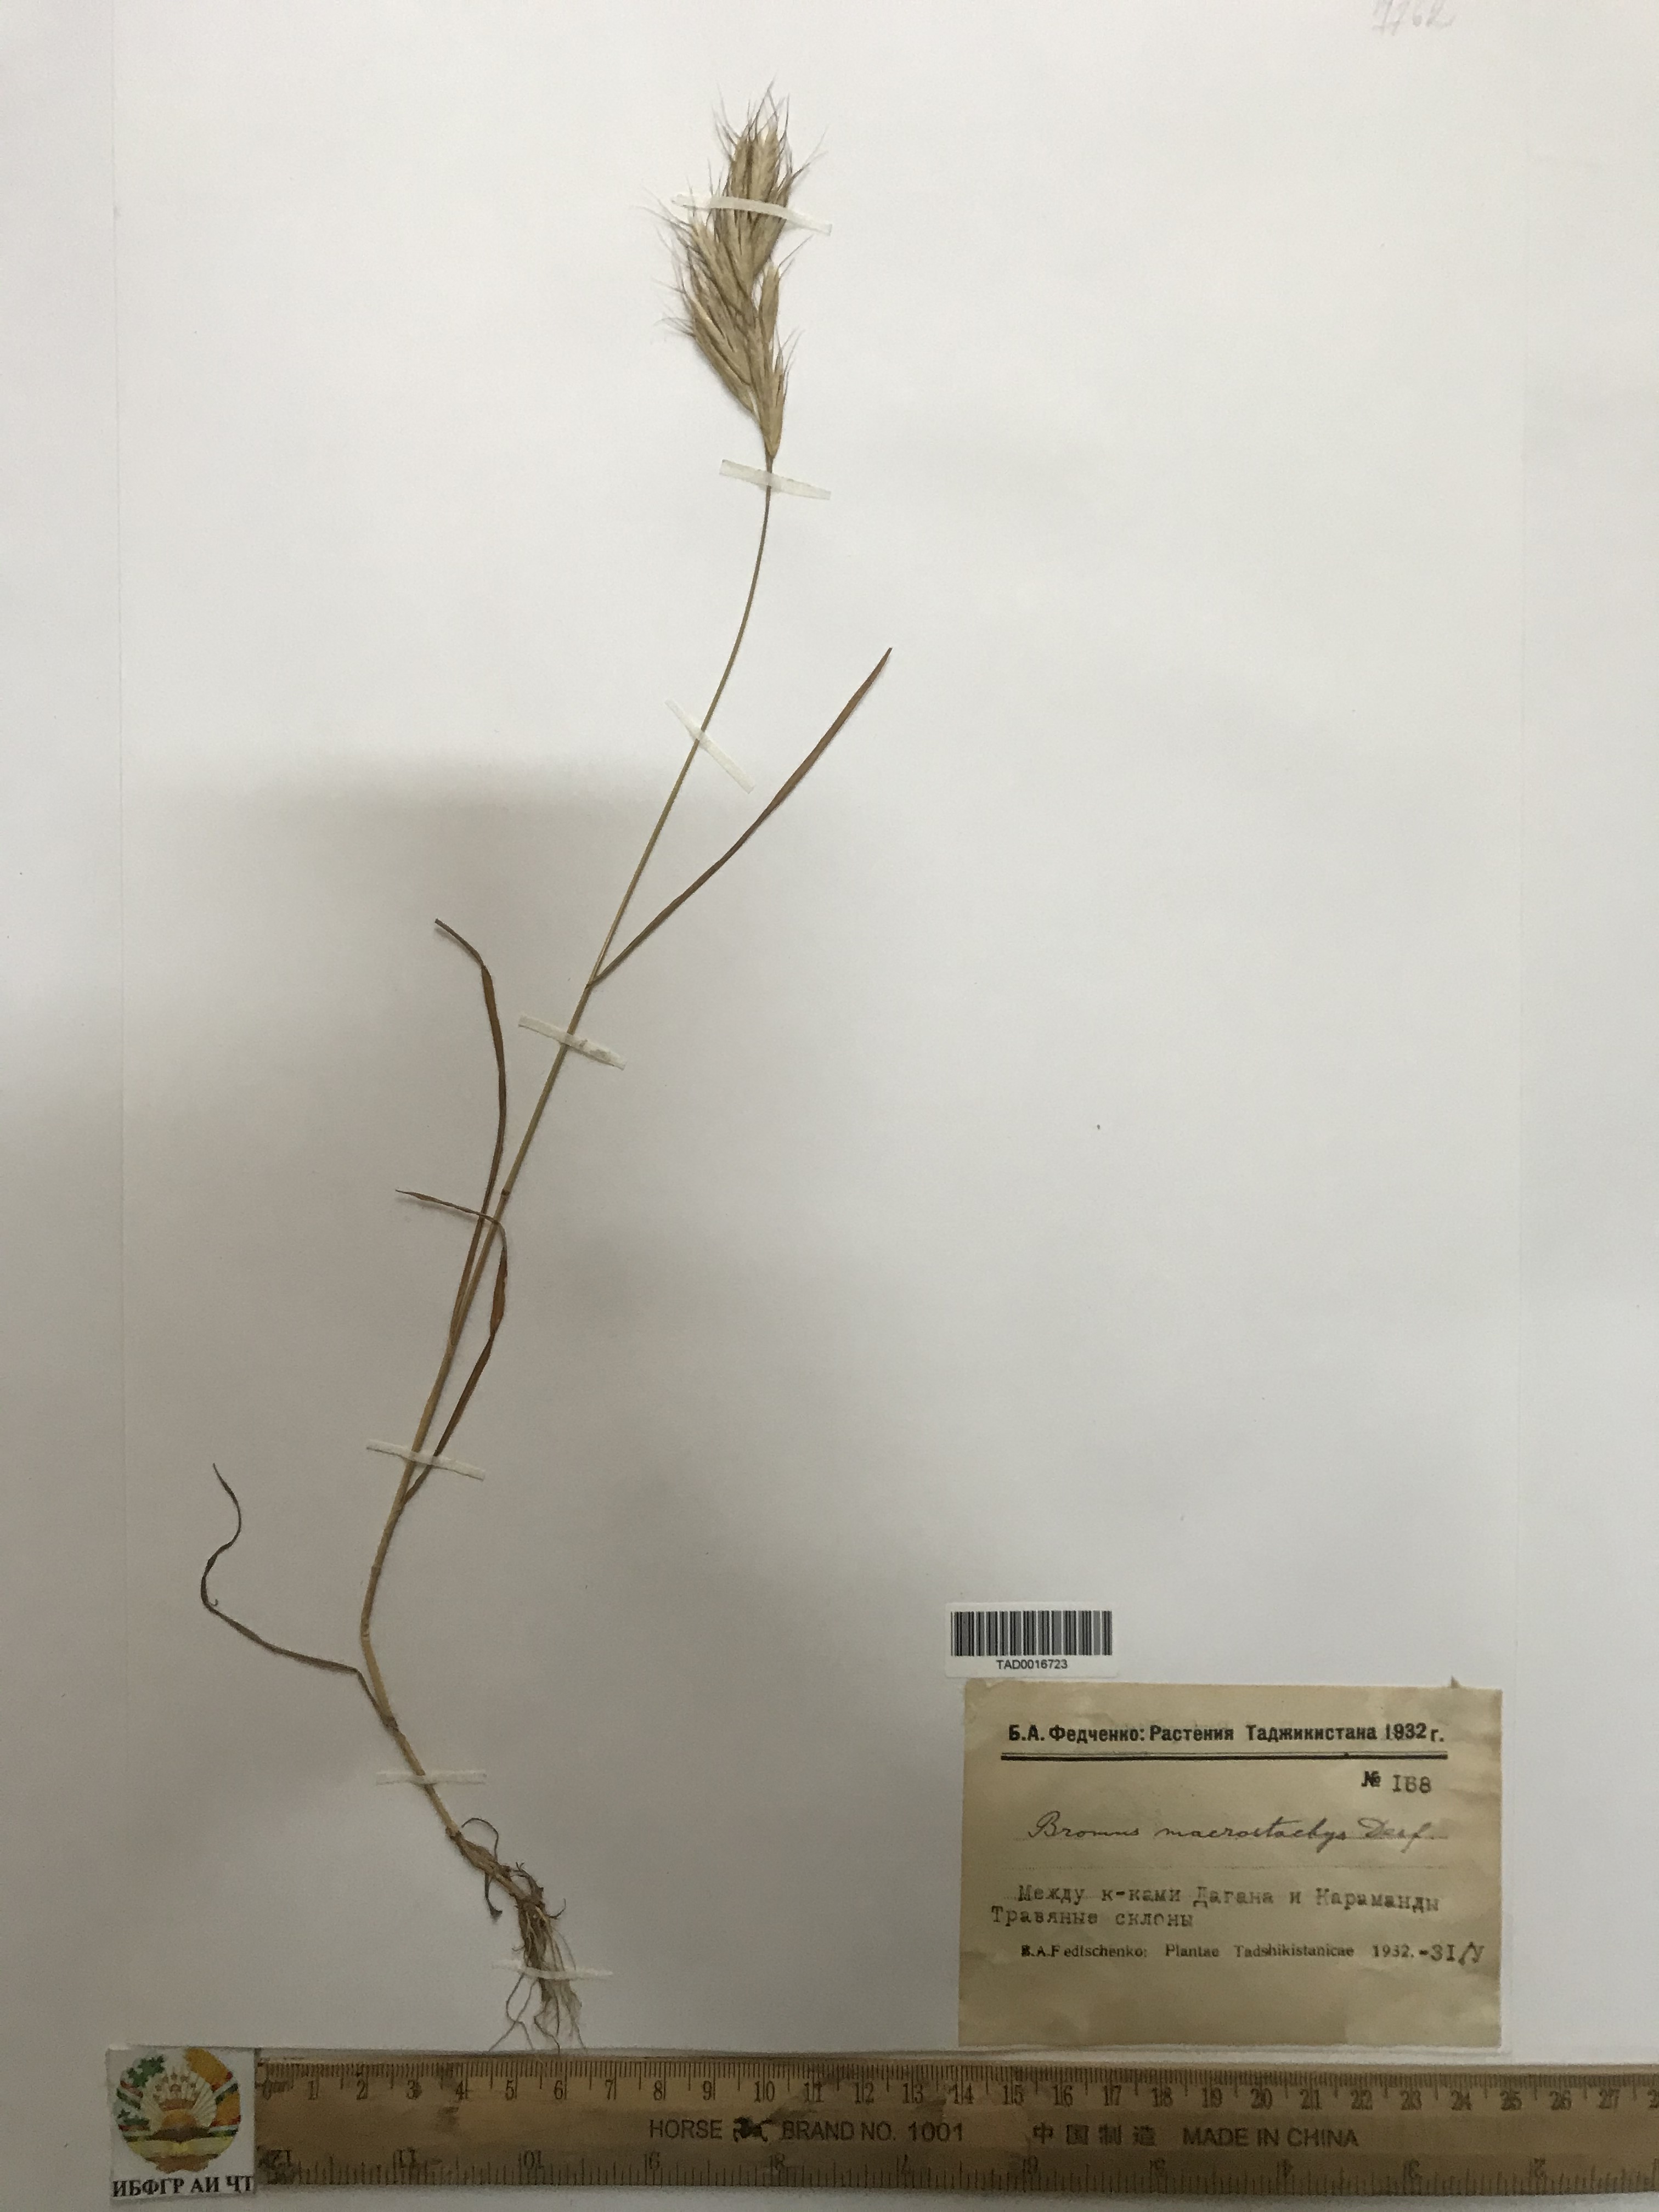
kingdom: Plantae
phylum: Tracheophyta
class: Liliopsida
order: Poales
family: Poaceae
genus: Bromus
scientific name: Bromus lanceolatus
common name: Mediterranean brome
